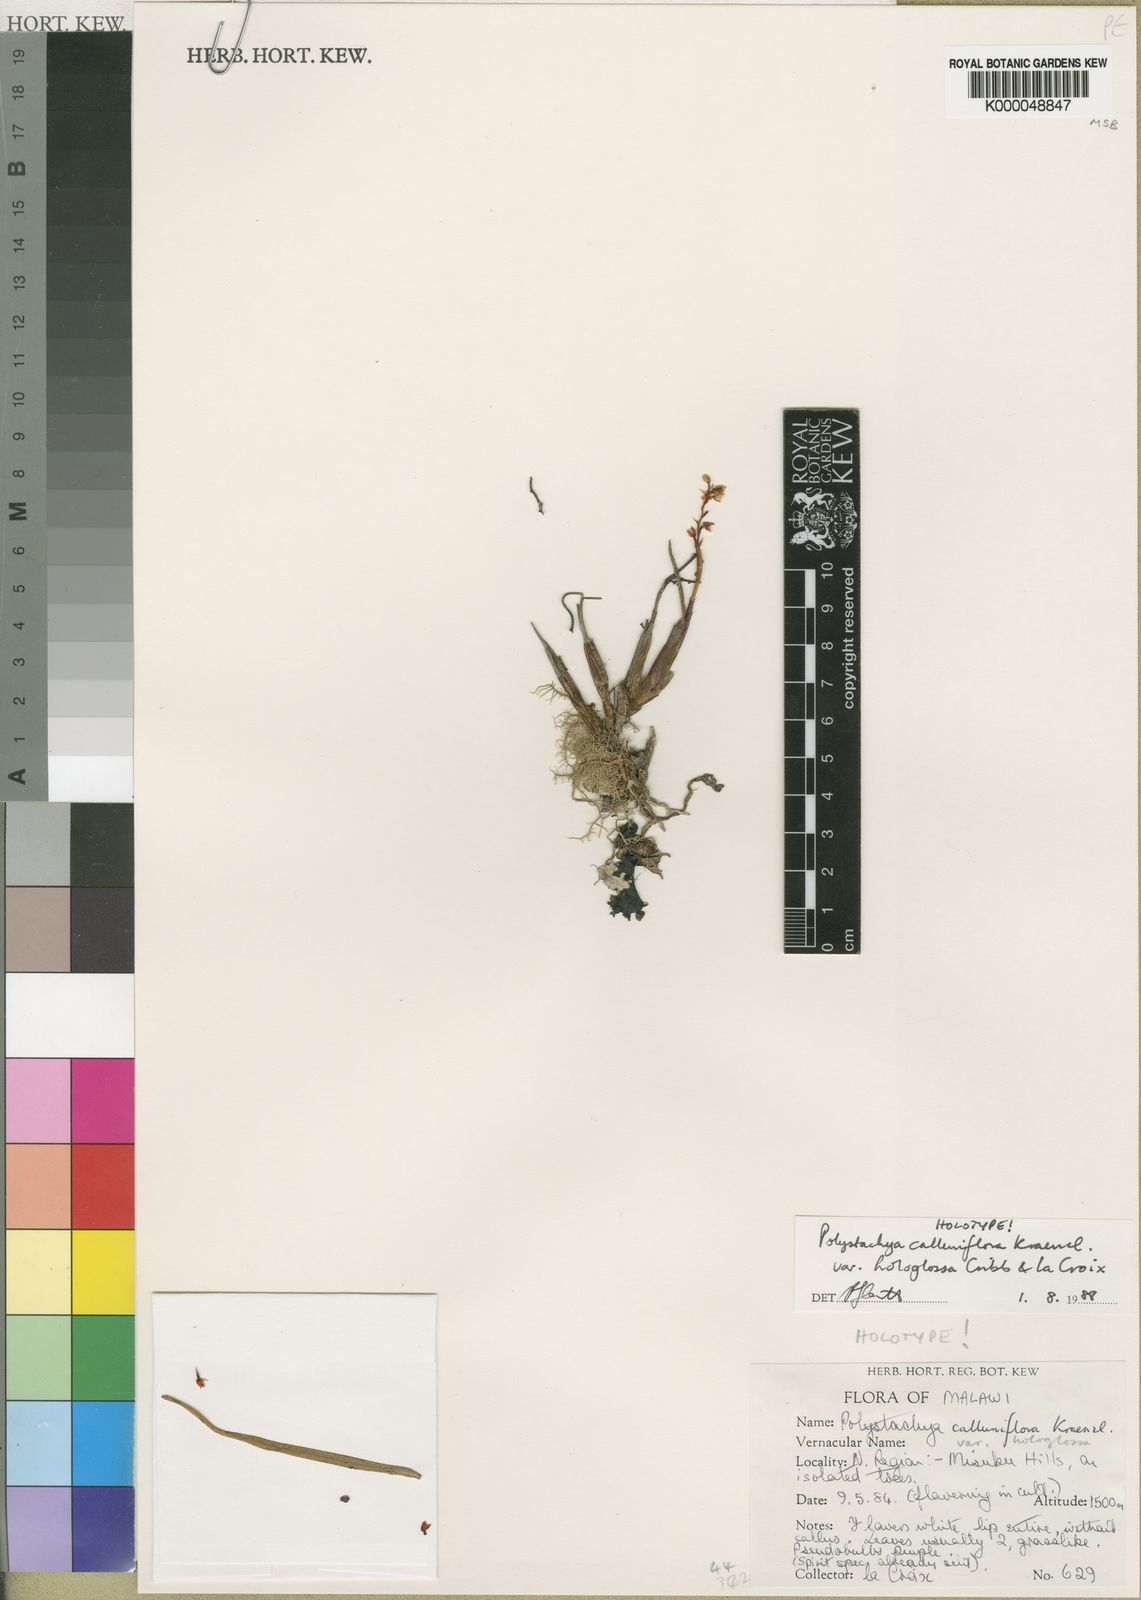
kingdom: Plantae
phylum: Tracheophyta
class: Liliopsida
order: Asparagales
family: Orchidaceae
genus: Polystachya
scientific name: Polystachya hologlossa
